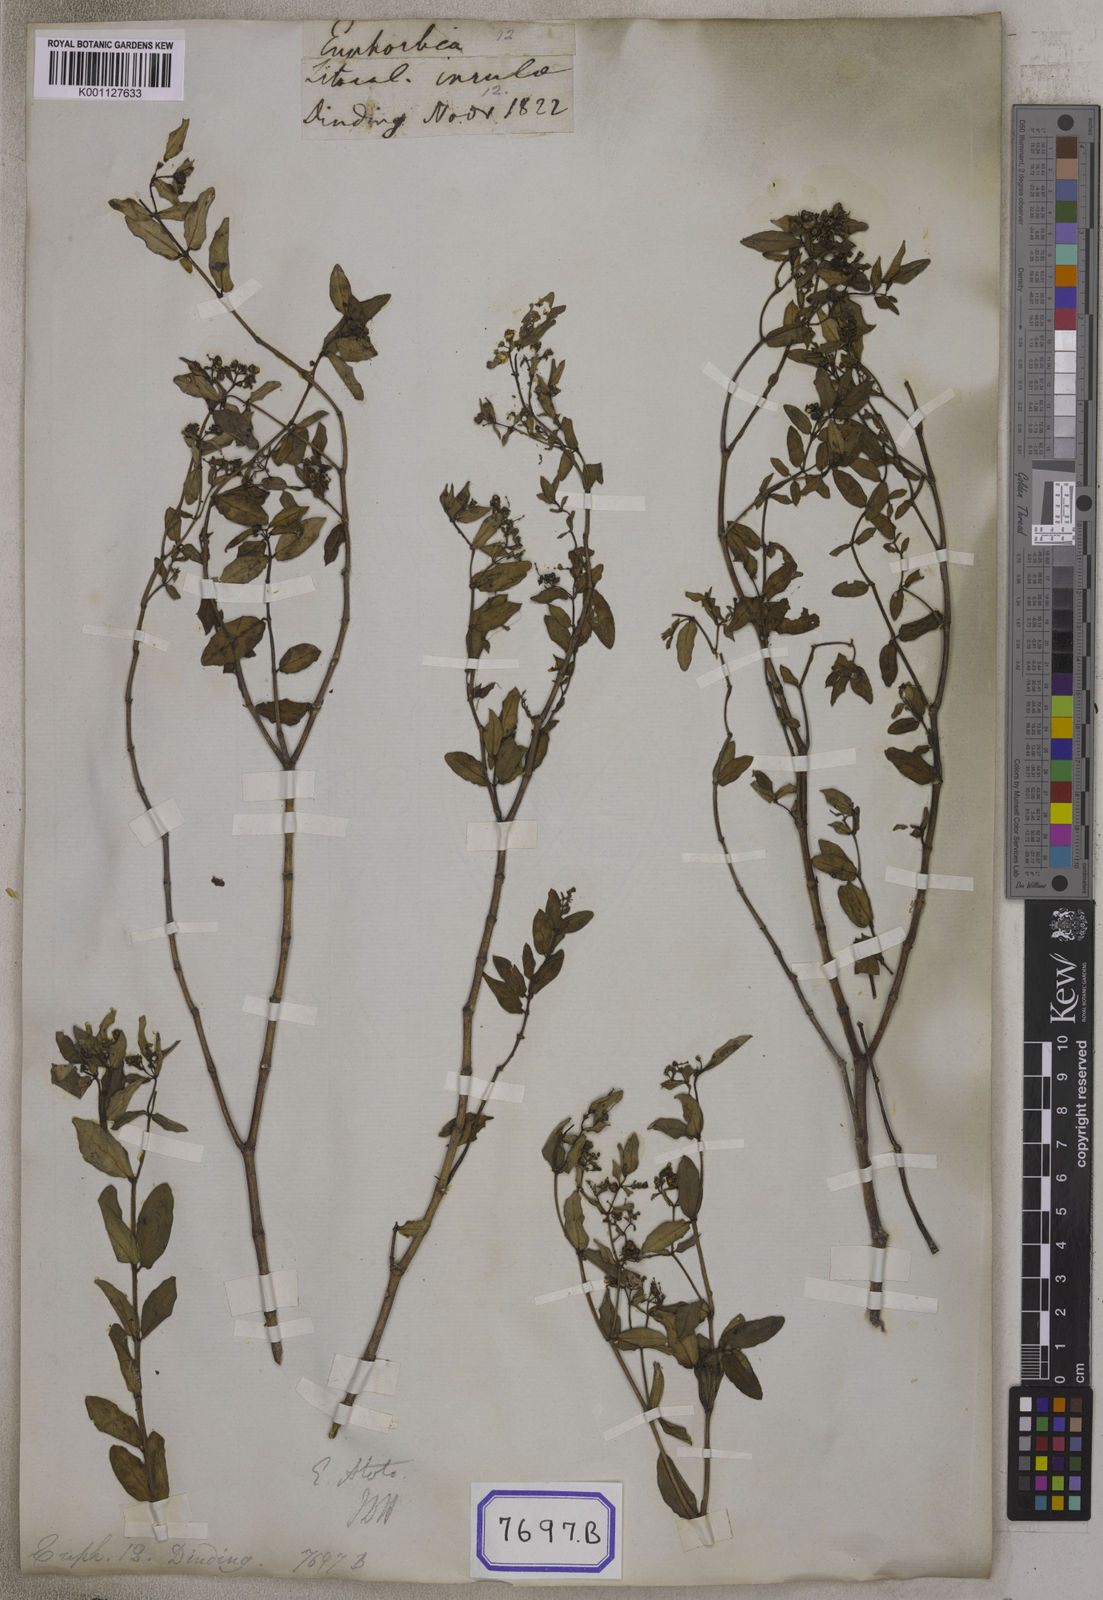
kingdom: Plantae
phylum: Tracheophyta
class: Magnoliopsida
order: Malpighiales
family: Euphorbiaceae
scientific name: Euphorbiaceae
